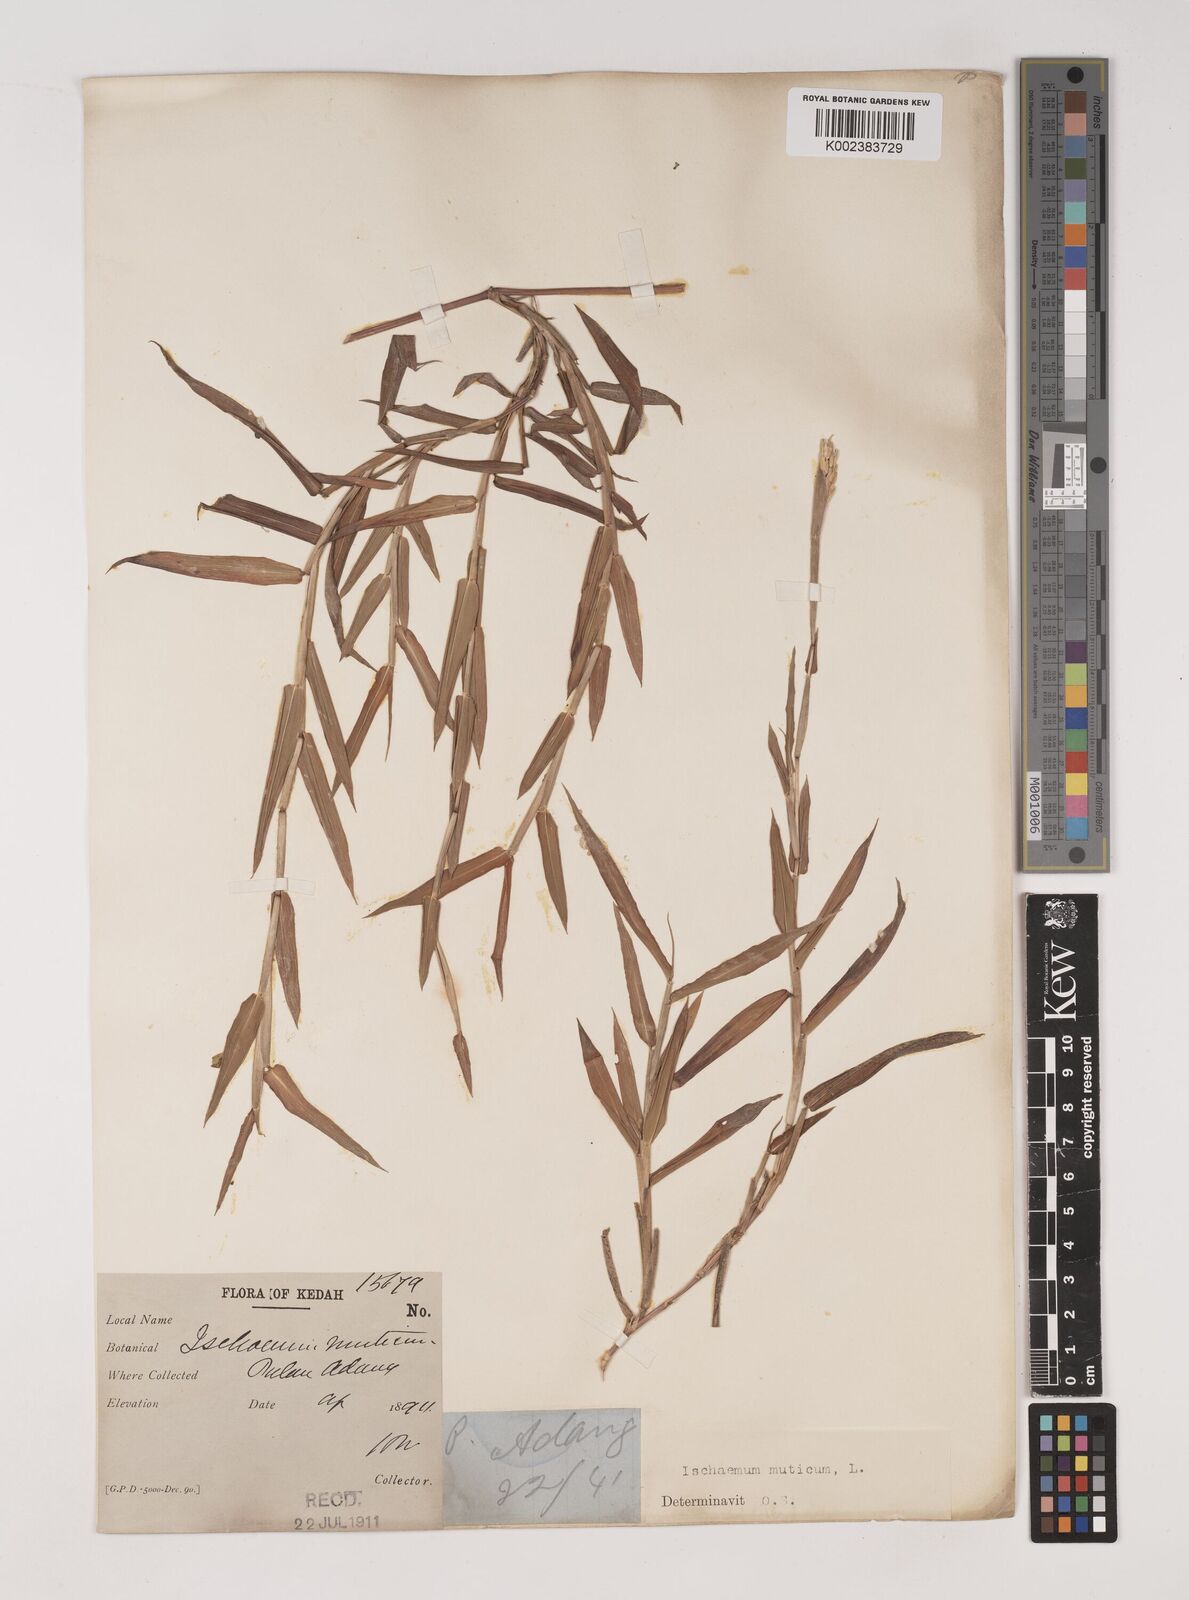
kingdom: Plantae
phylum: Tracheophyta
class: Liliopsida
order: Poales
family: Poaceae
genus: Ischaemum
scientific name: Ischaemum muticum
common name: Drought grass
